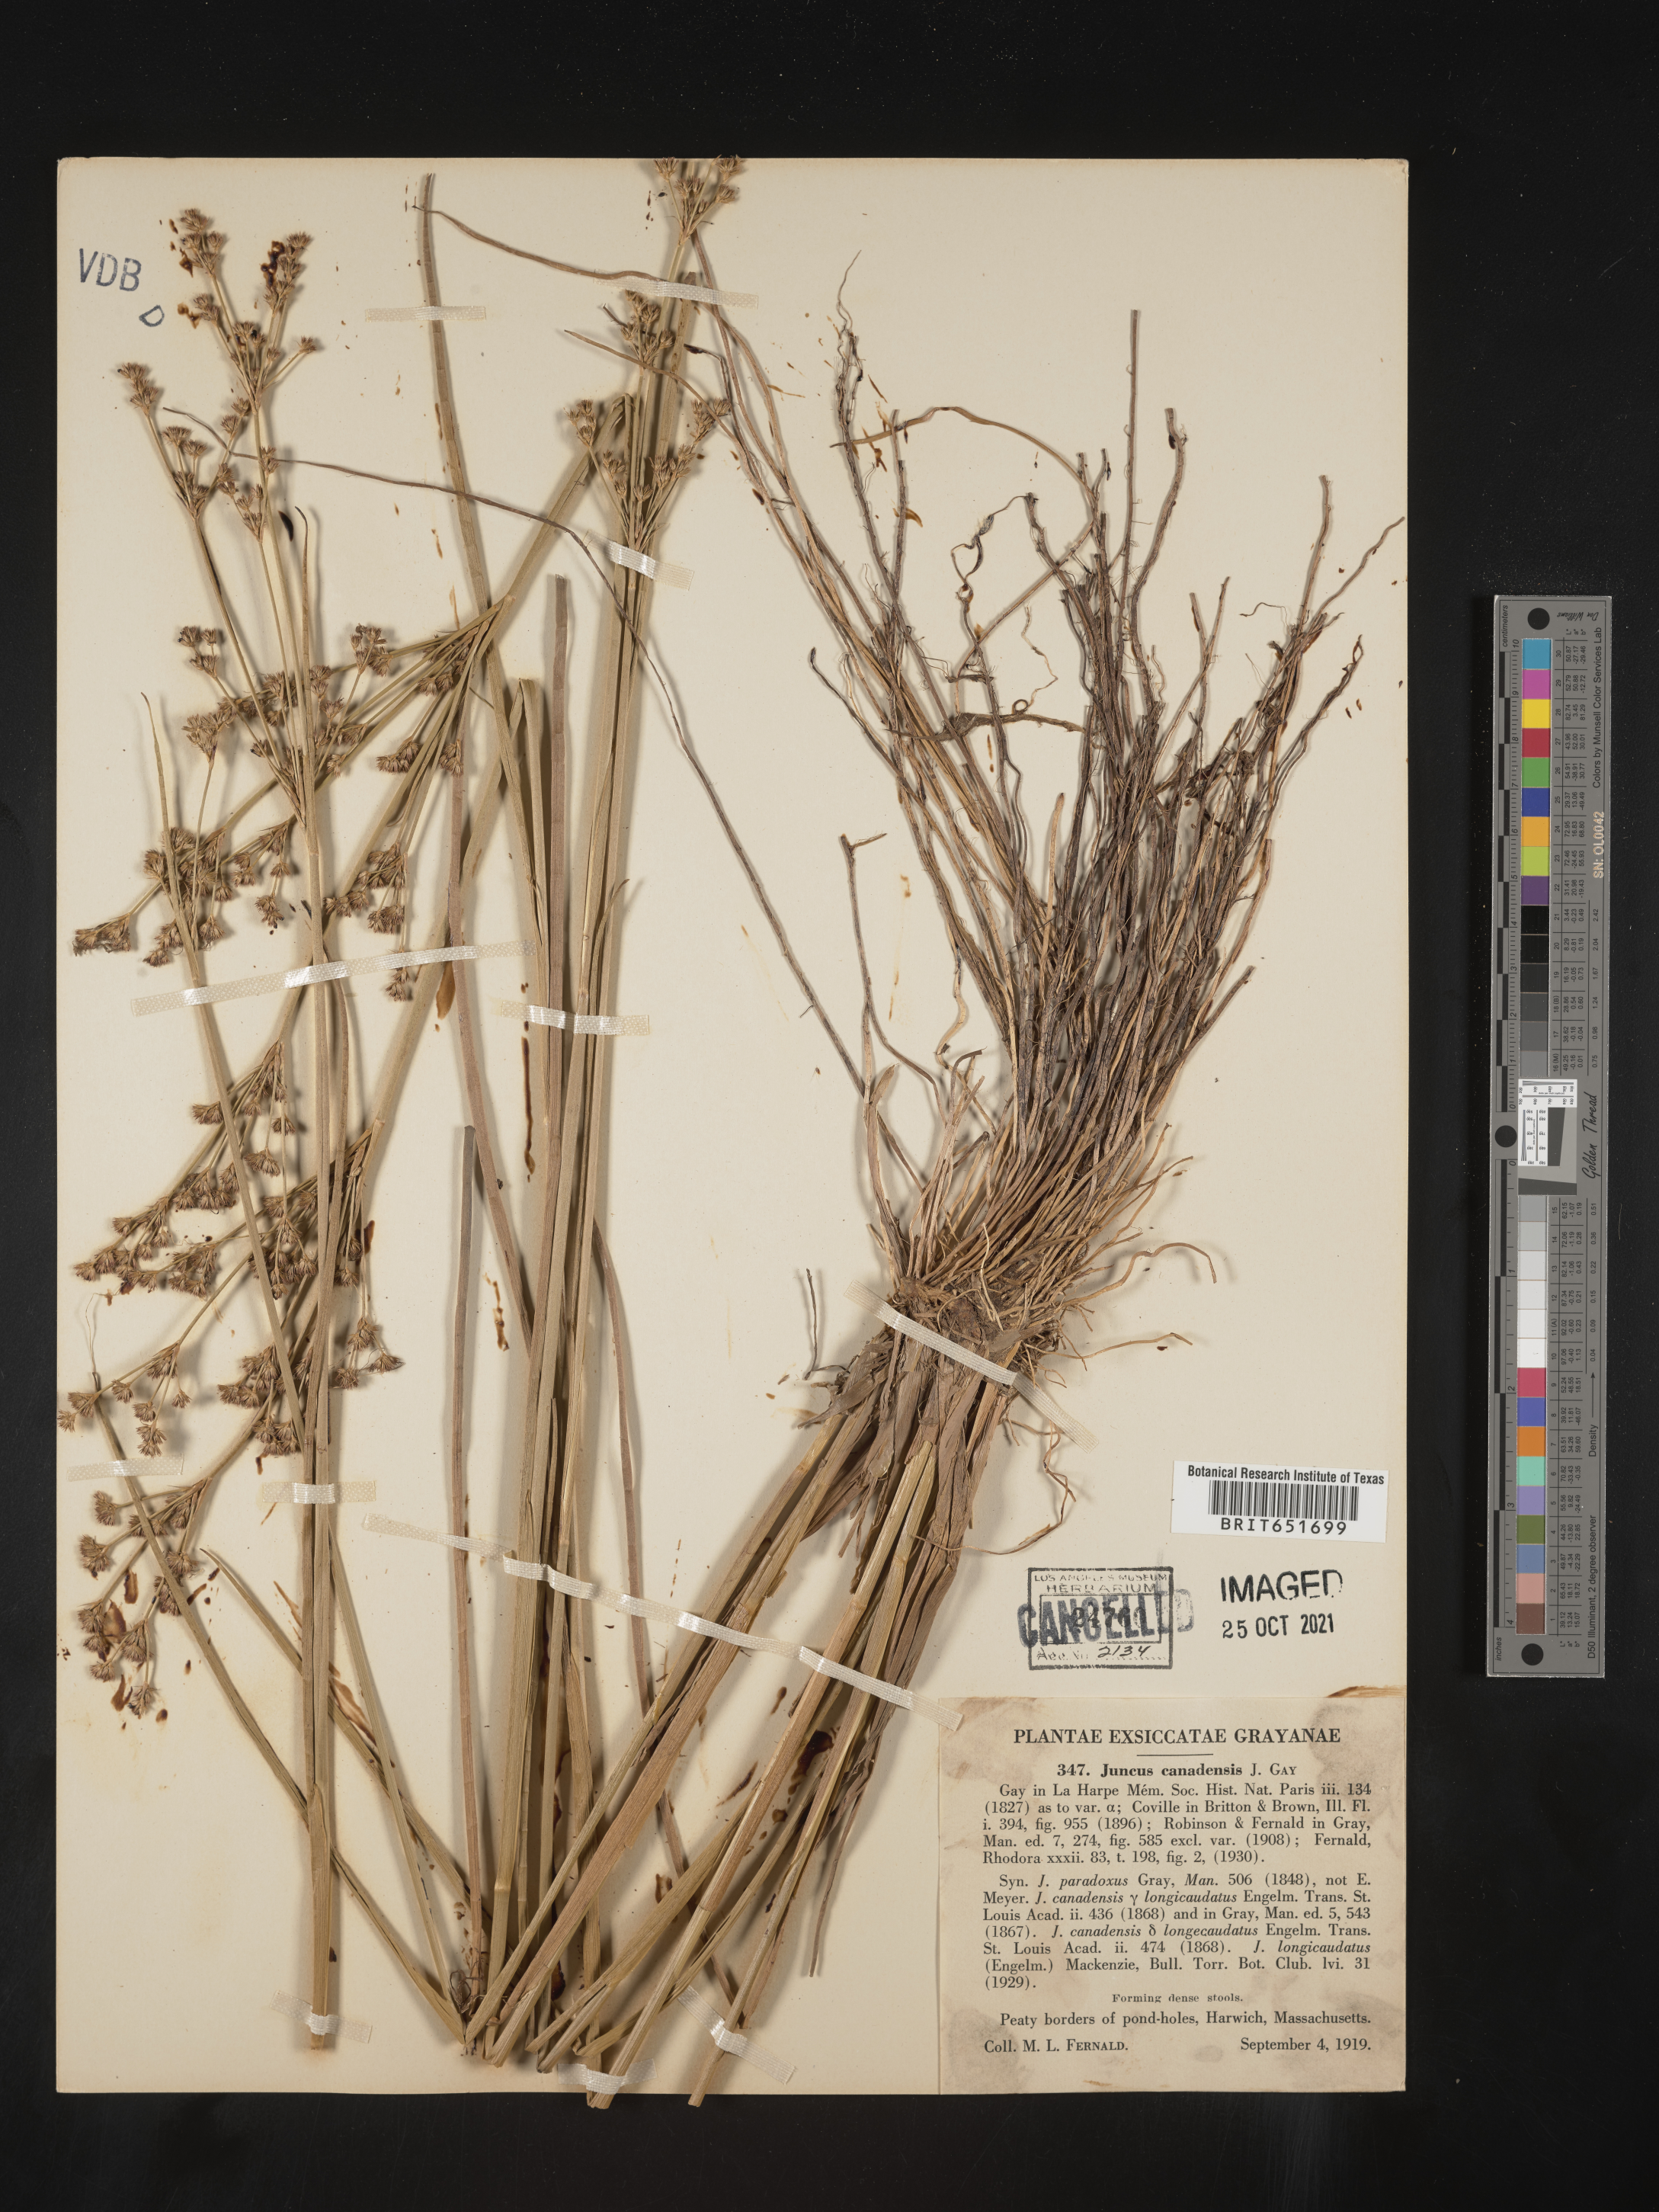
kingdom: Plantae
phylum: Tracheophyta
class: Liliopsida
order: Poales
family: Juncaceae
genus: Juncus
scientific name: Juncus canadensis
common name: Canada rush
